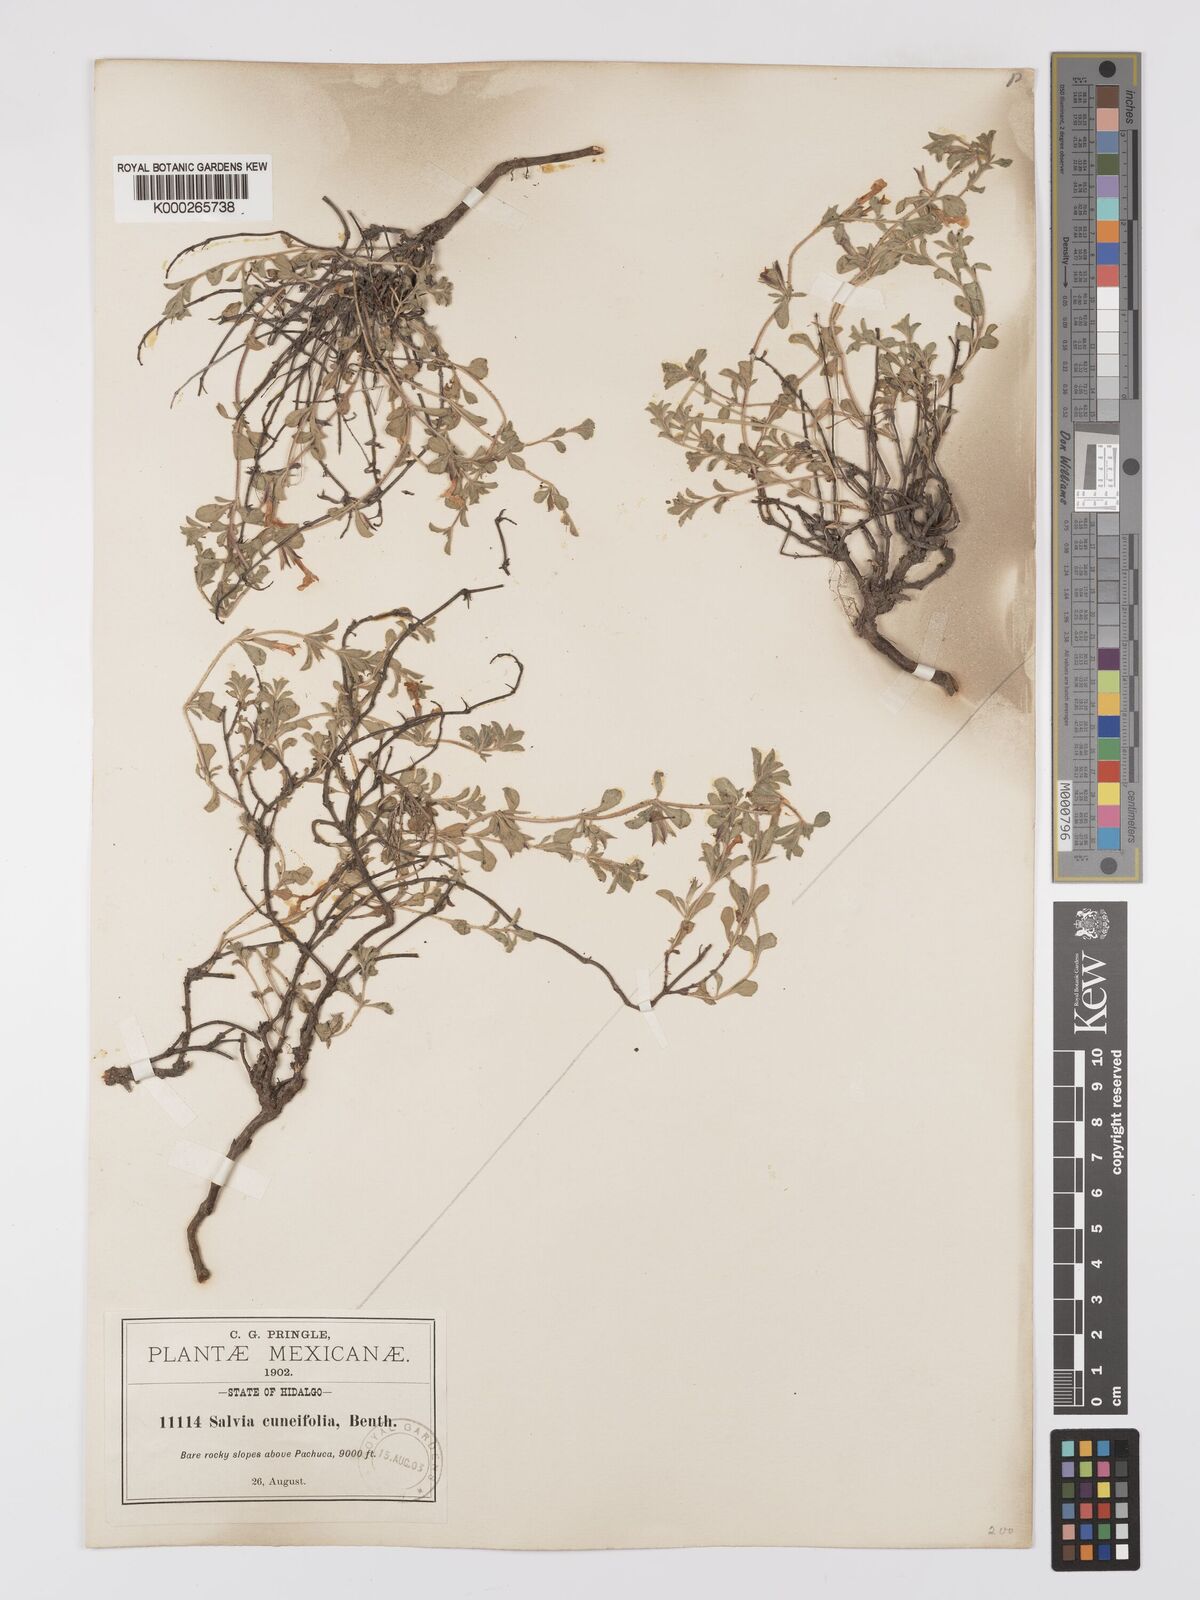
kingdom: Plantae
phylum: Tracheophyta
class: Magnoliopsida
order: Lamiales
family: Lamiaceae
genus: Salvia
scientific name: Salvia
